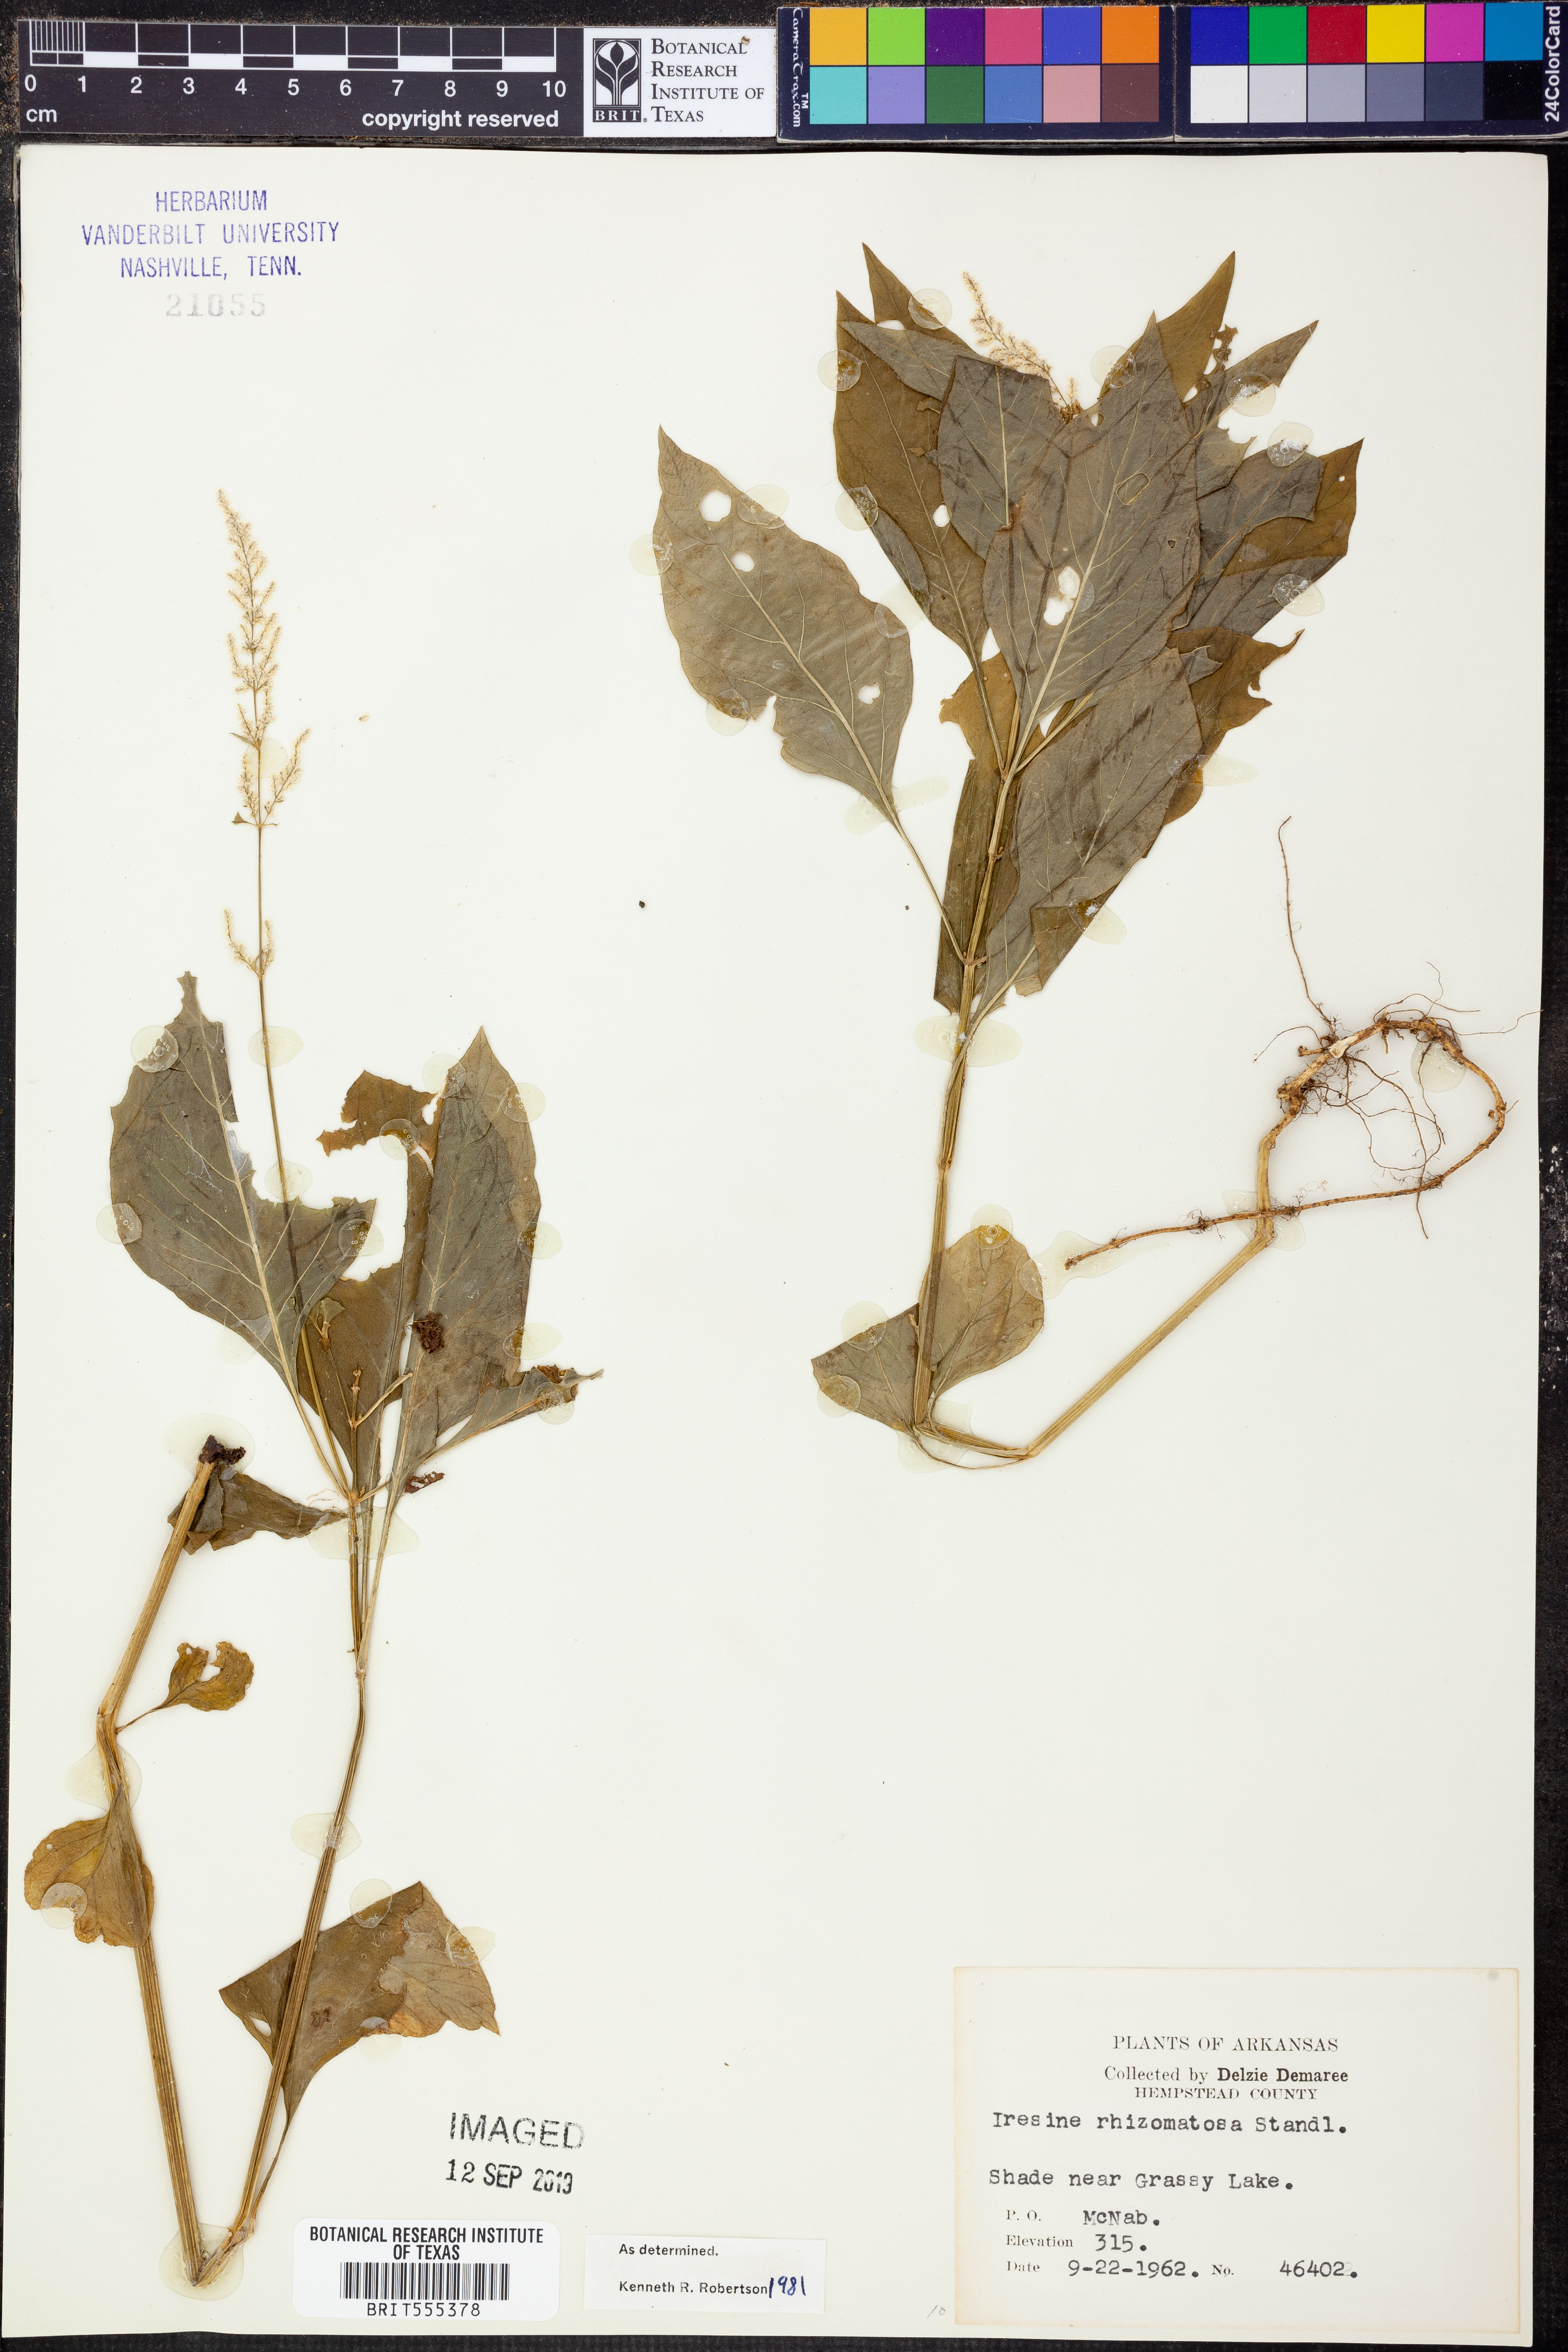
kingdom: Plantae
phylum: Tracheophyta
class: Magnoliopsida
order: Caryophyllales
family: Amaranthaceae
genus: Iresine
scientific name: Iresine rhizomatosa
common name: Juda's-bush
